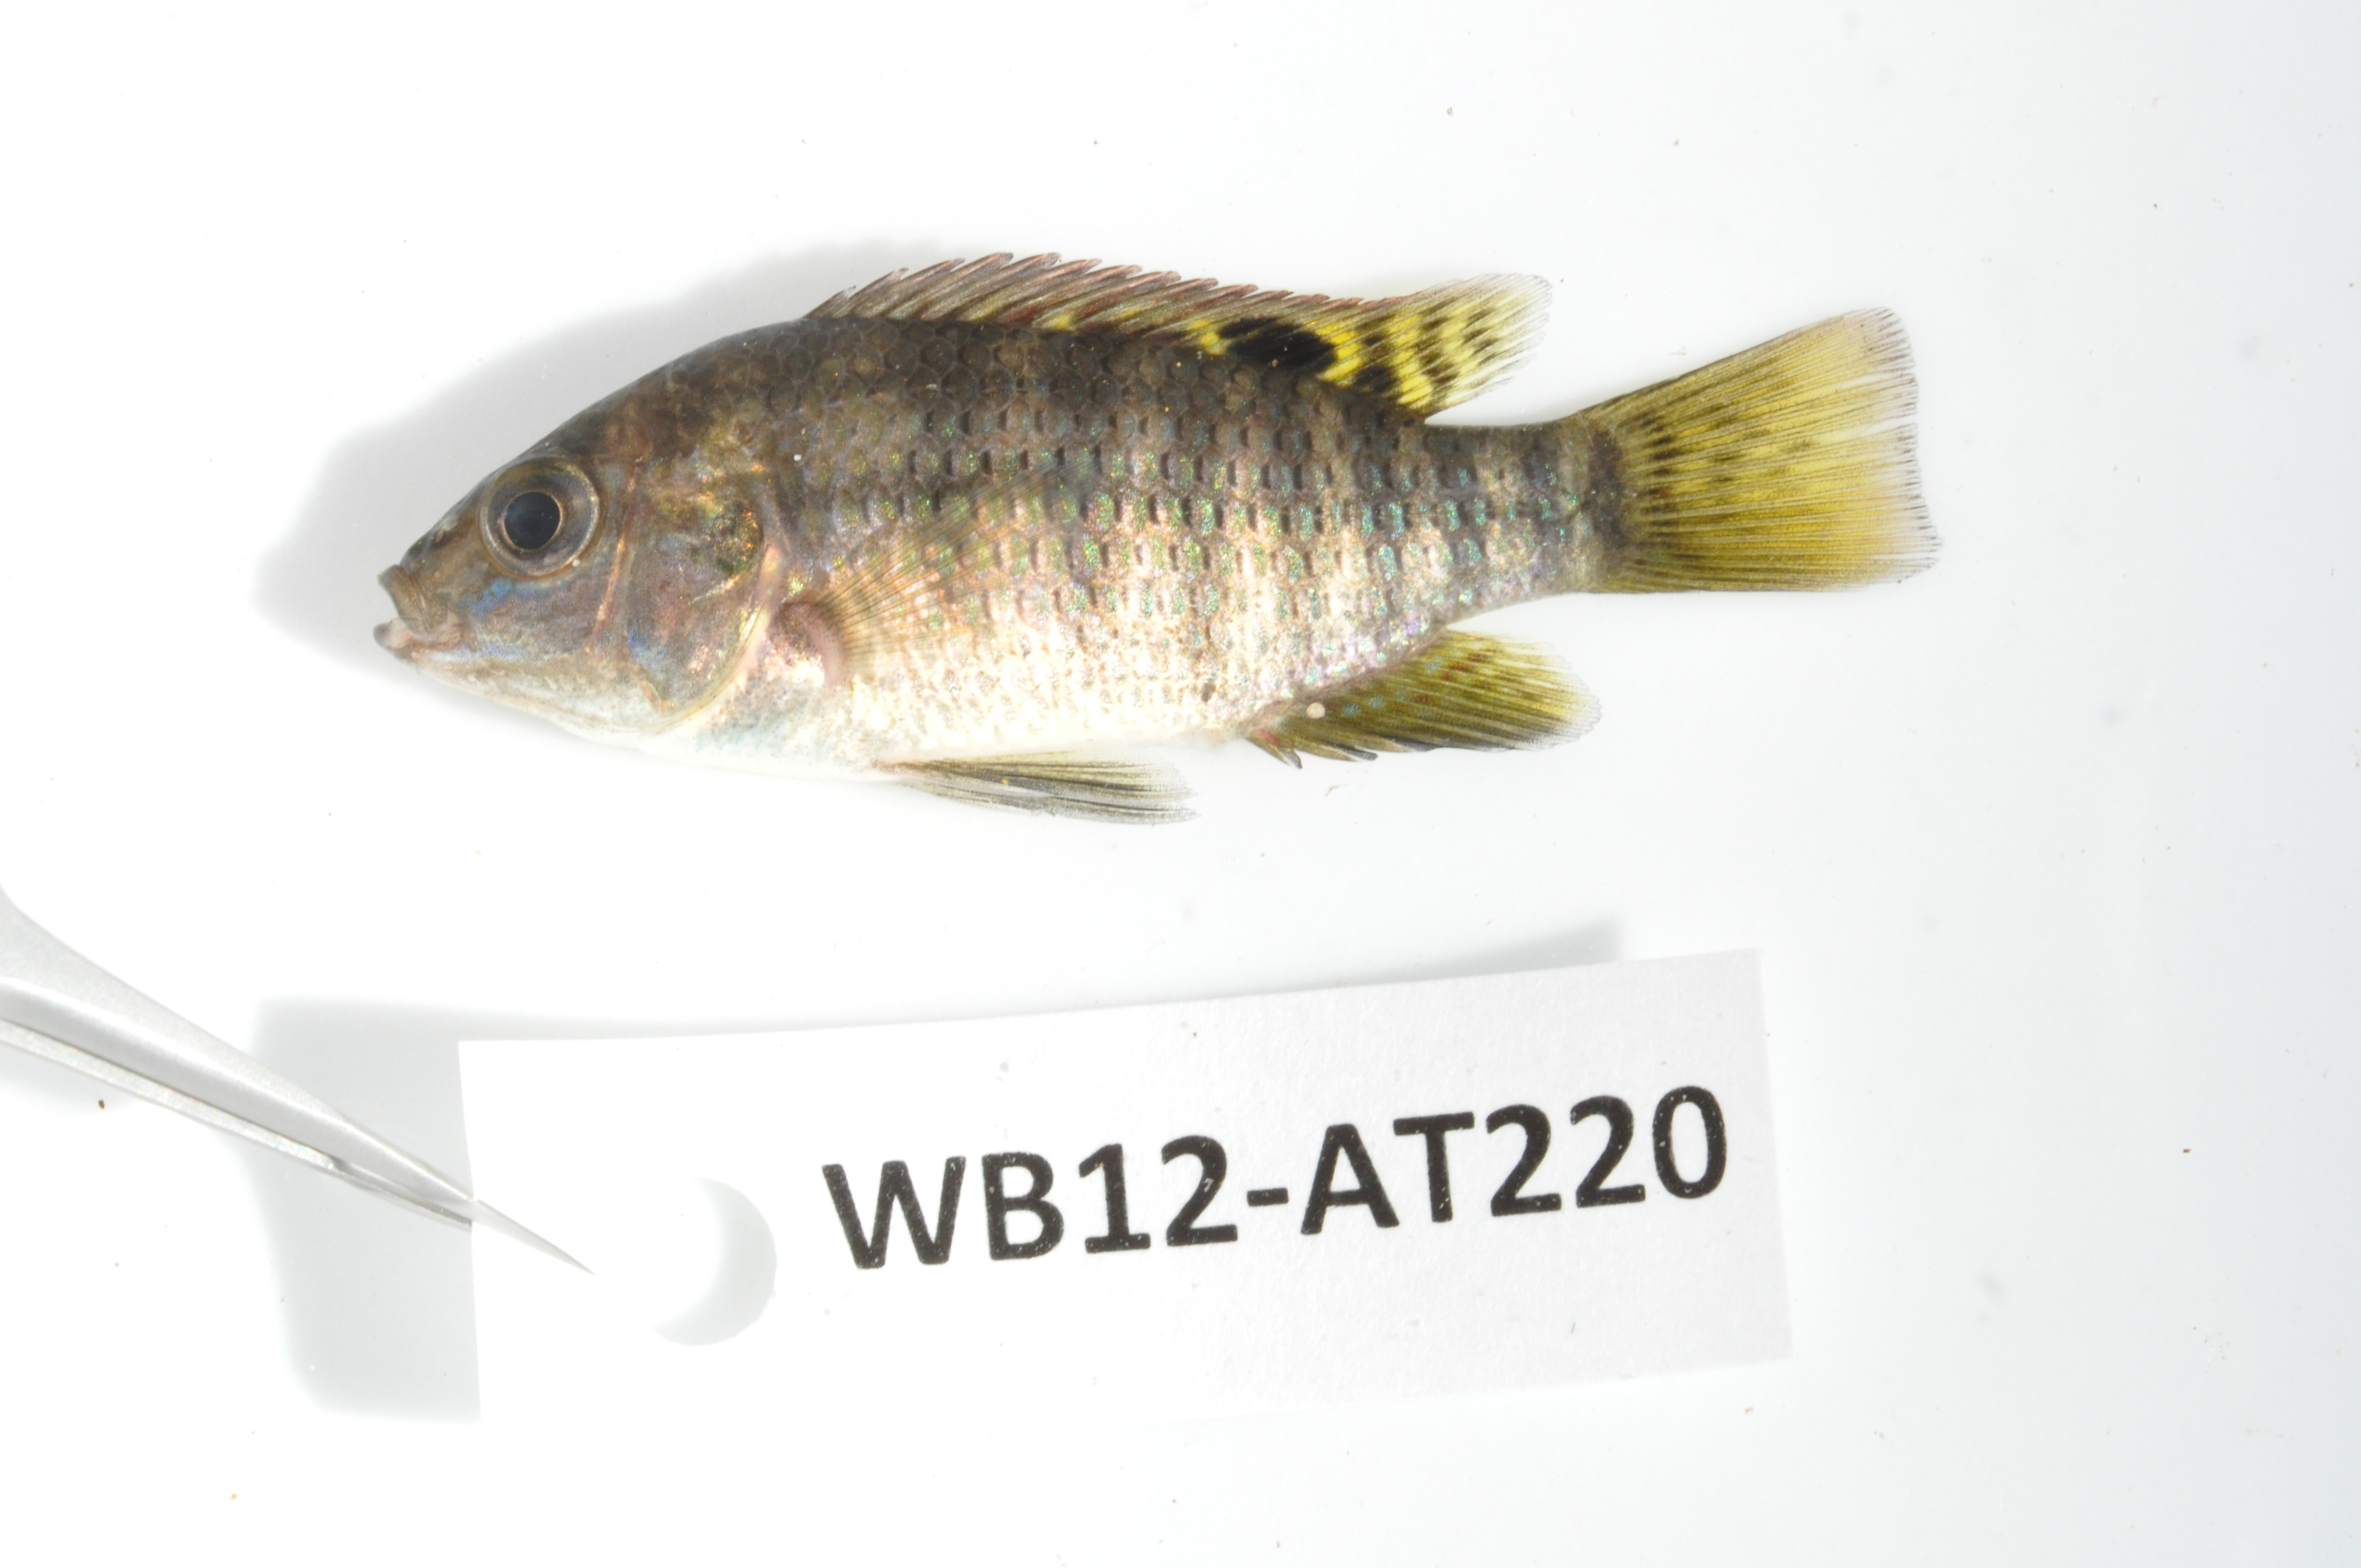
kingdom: Animalia
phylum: Chordata
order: Perciformes
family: Cichlidae
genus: Tilapia
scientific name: Tilapia sparrmanii
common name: Banded tilapia
